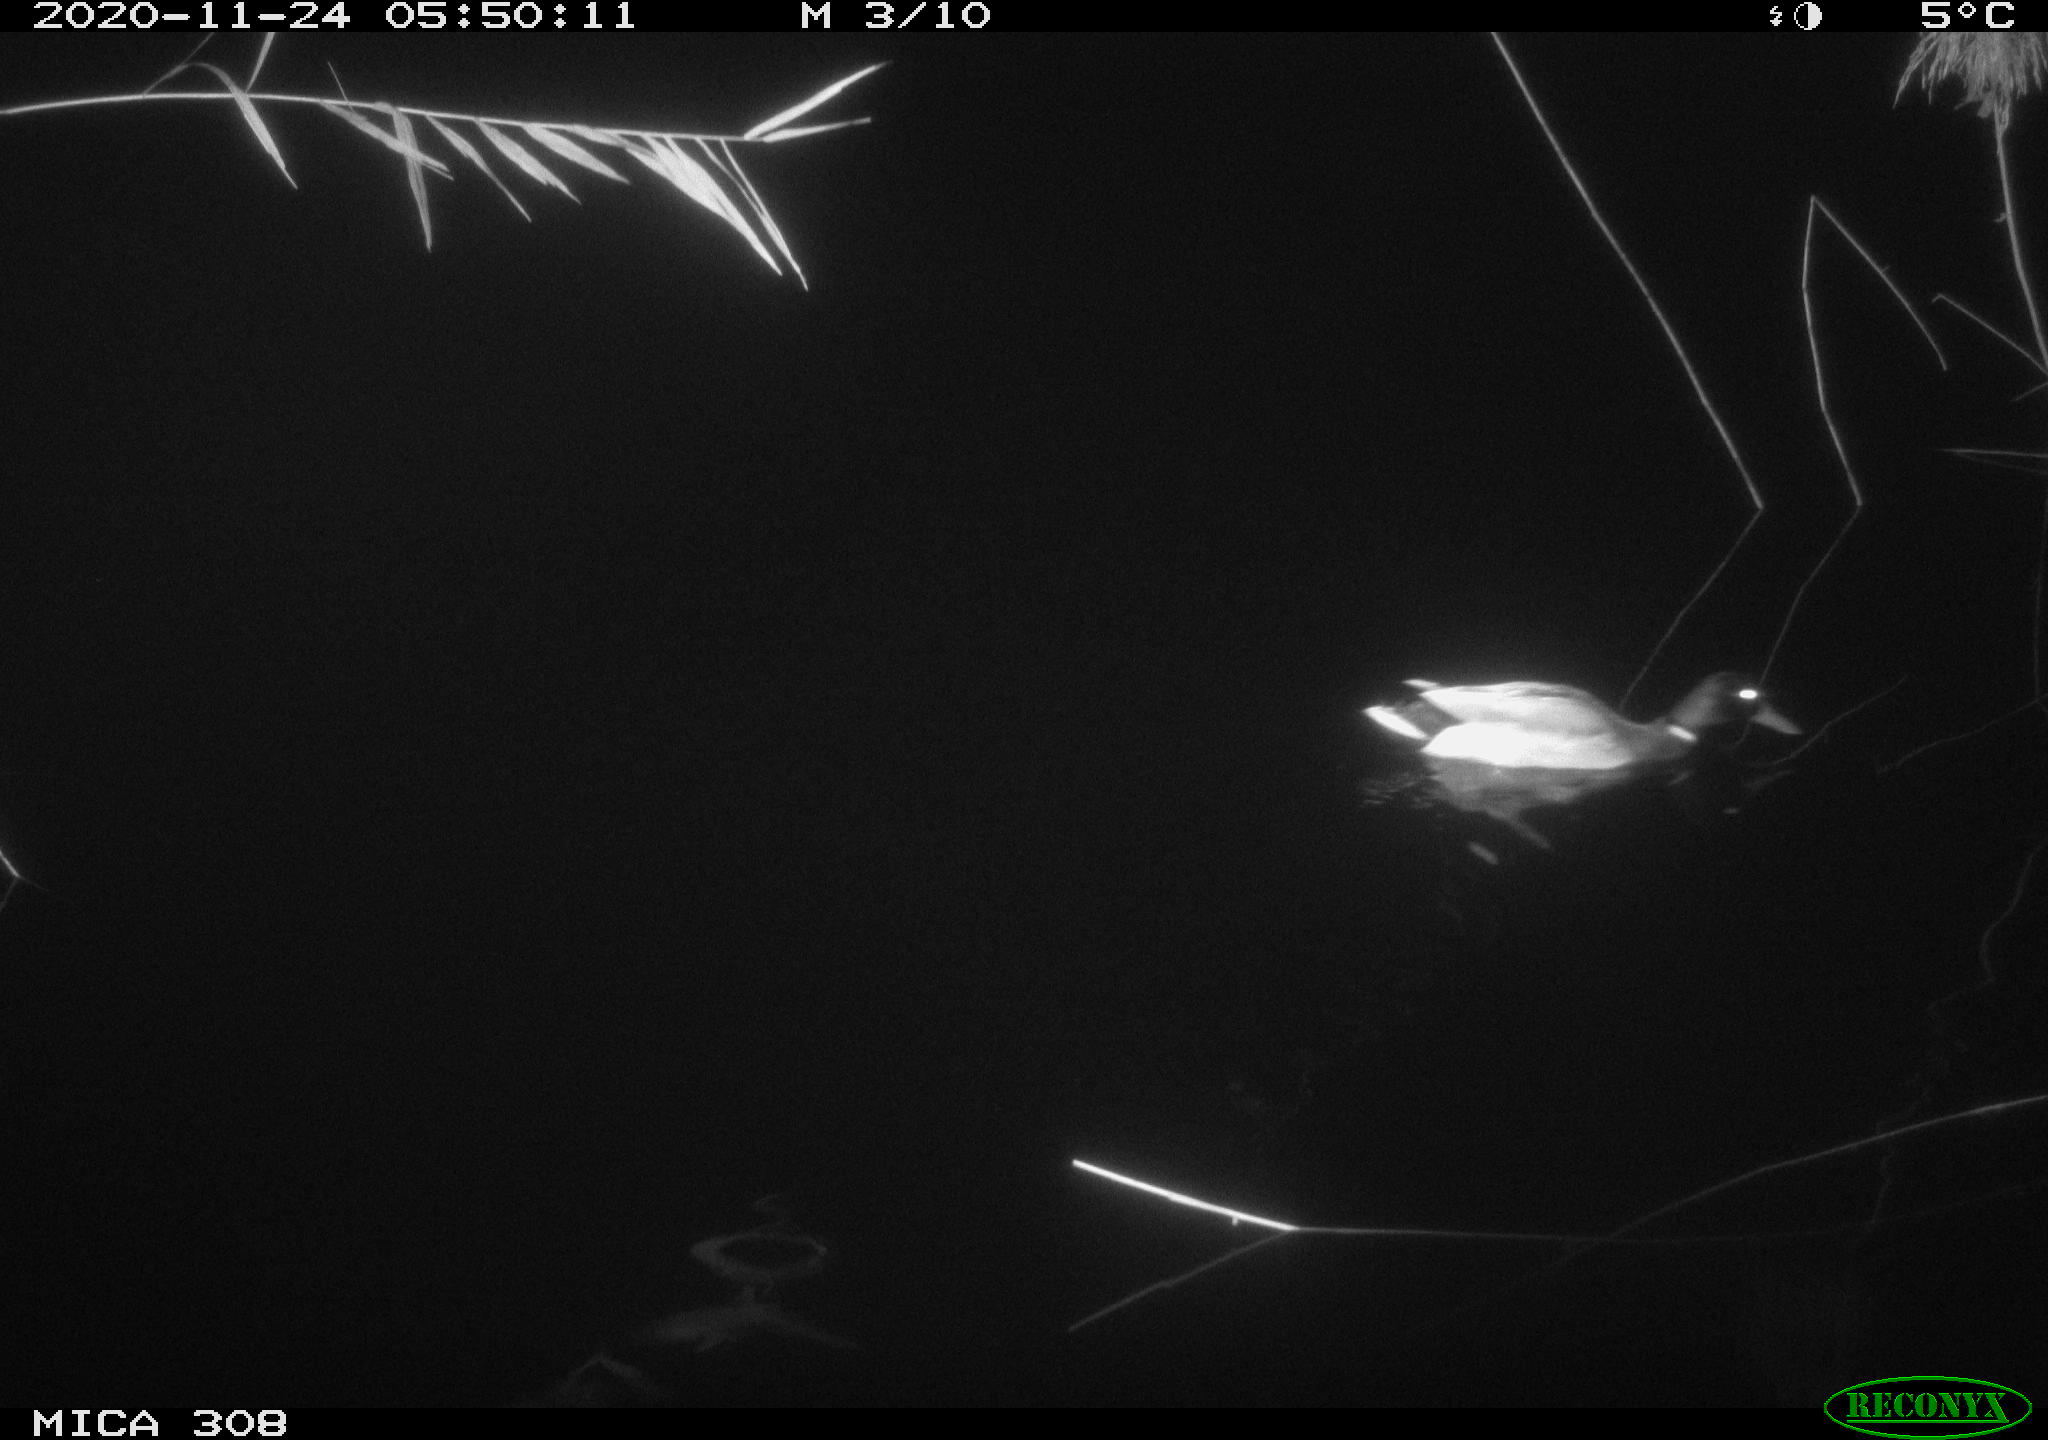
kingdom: Animalia
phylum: Chordata
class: Aves
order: Anseriformes
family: Anatidae
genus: Anas
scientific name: Anas platyrhynchos
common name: Mallard
